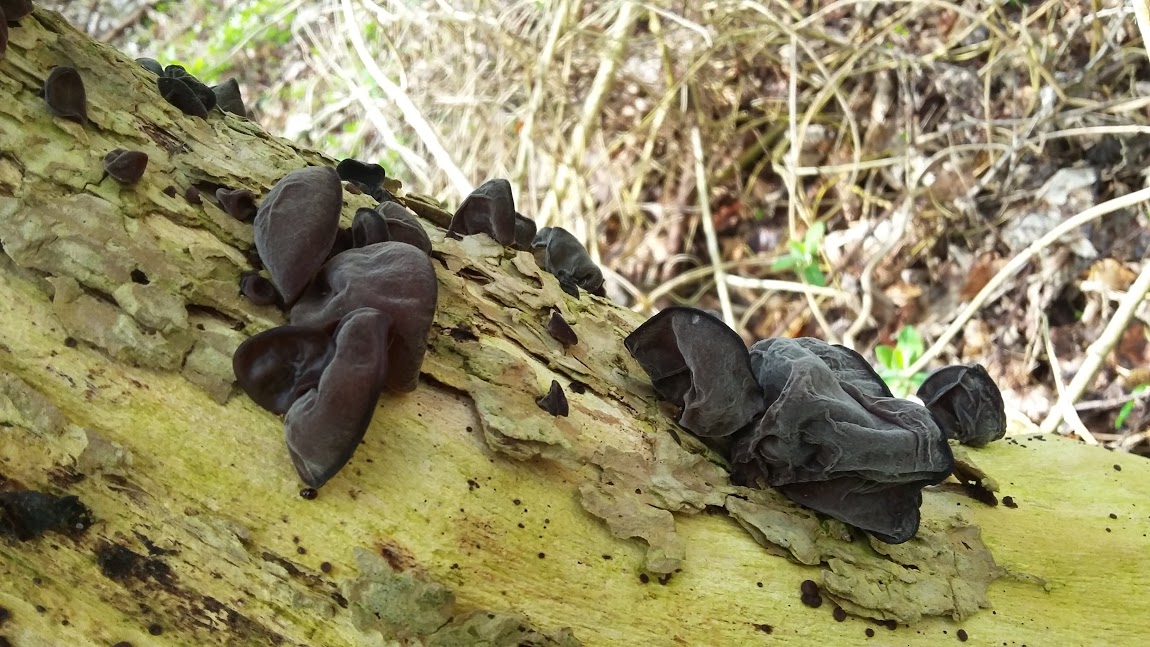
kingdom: Fungi
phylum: Basidiomycota
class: Agaricomycetes
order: Auriculariales
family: Auriculariaceae
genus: Auricularia
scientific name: Auricularia auricula-judae
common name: almindelig judasøre
